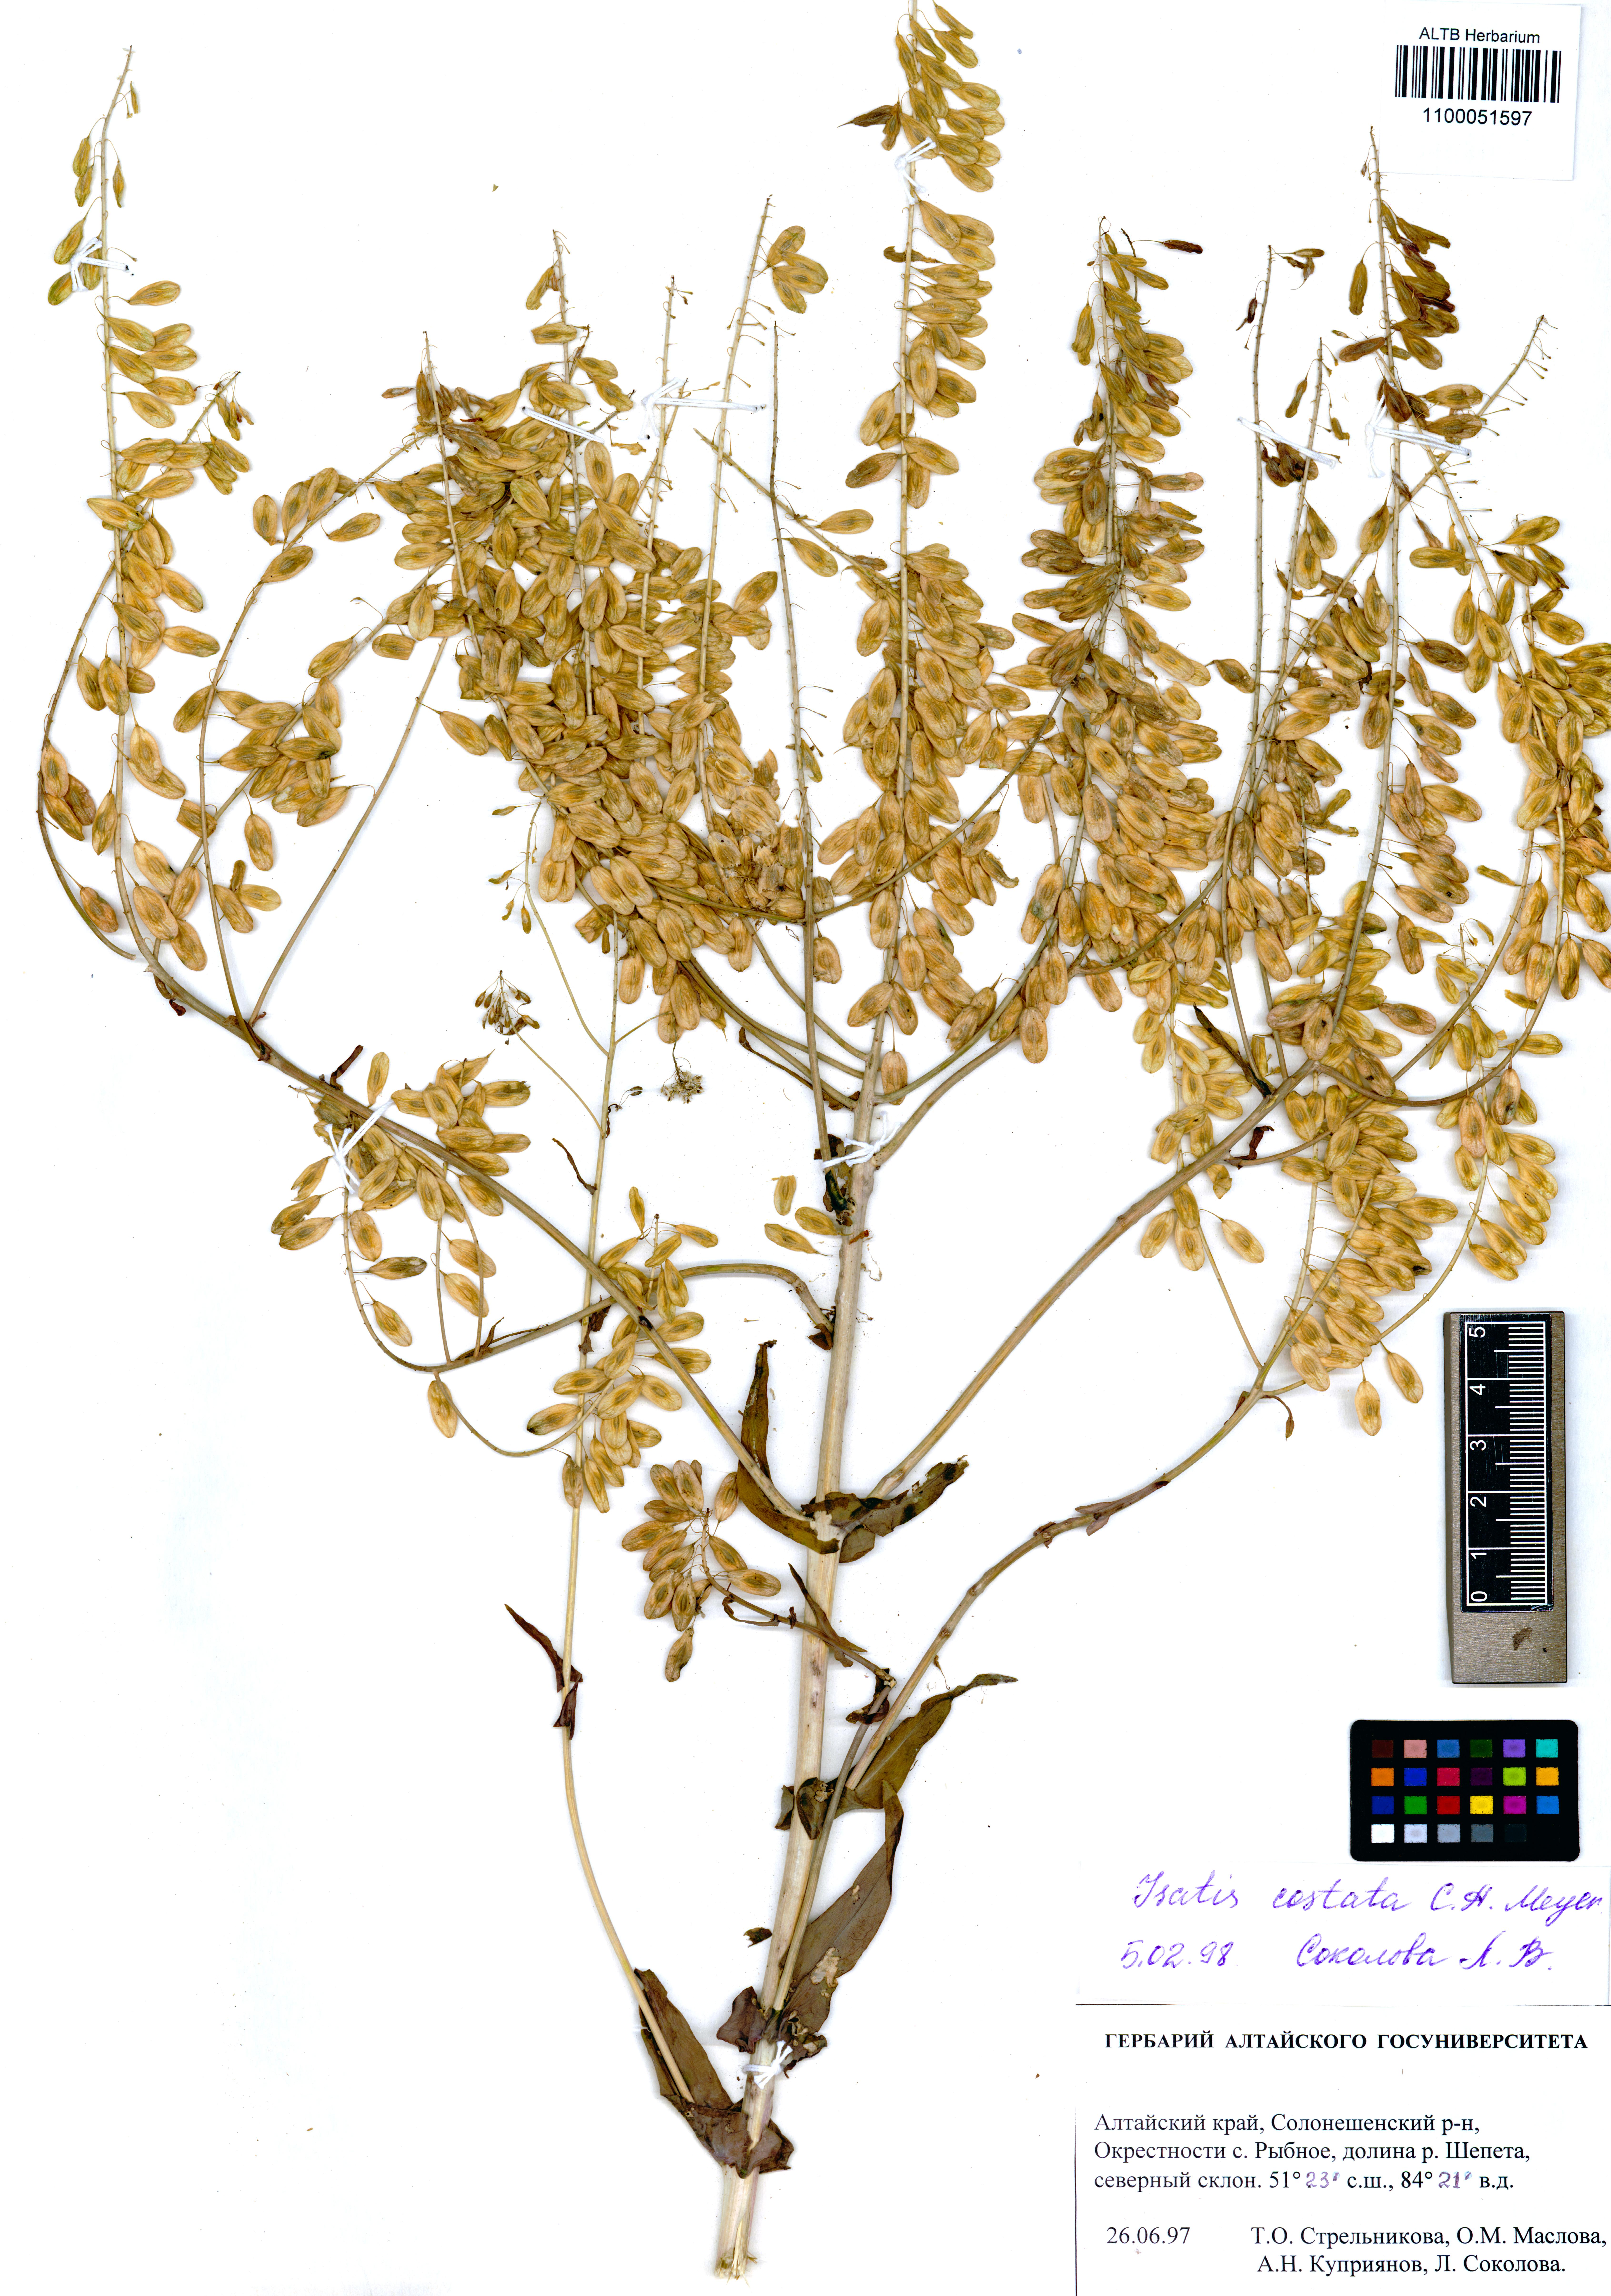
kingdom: Plantae
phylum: Tracheophyta
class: Magnoliopsida
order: Brassicales
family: Brassicaceae
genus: Isatis
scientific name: Isatis costata
